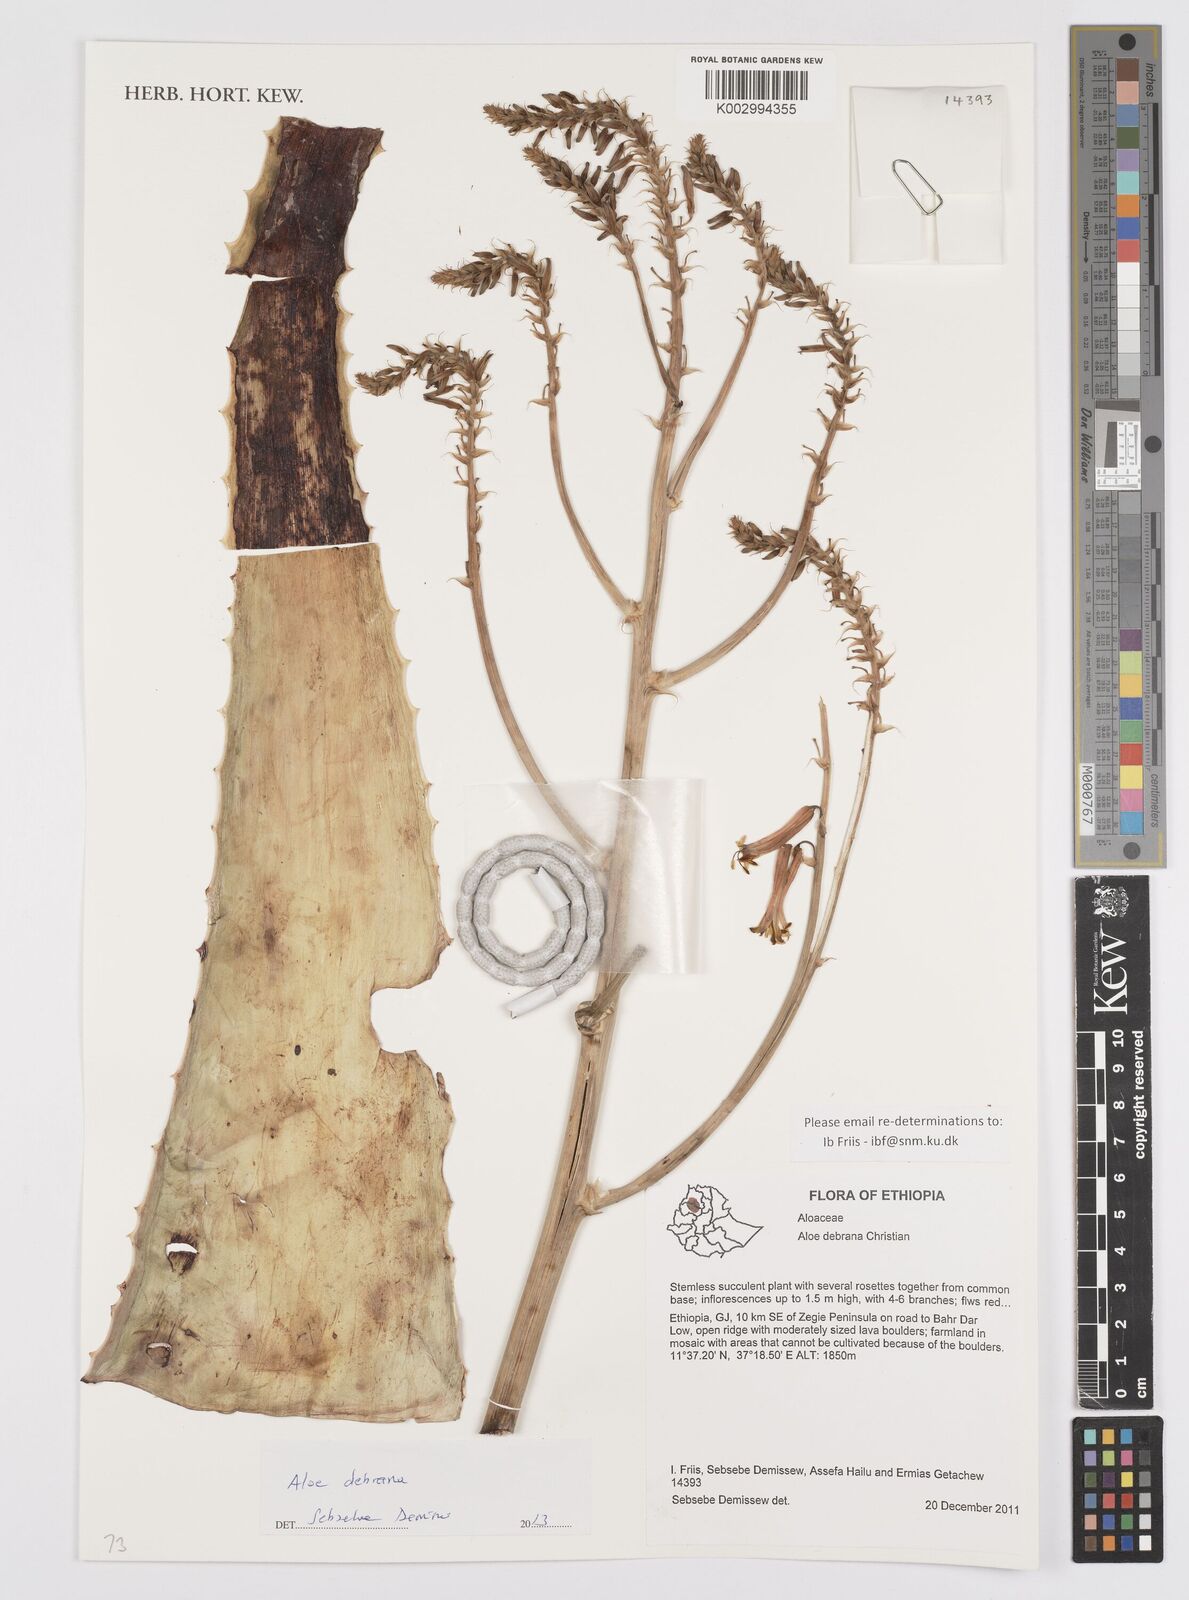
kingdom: Plantae
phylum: Tracheophyta
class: Liliopsida
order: Asparagales
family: Asphodelaceae
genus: Aloe
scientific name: Aloe macrocarpa
